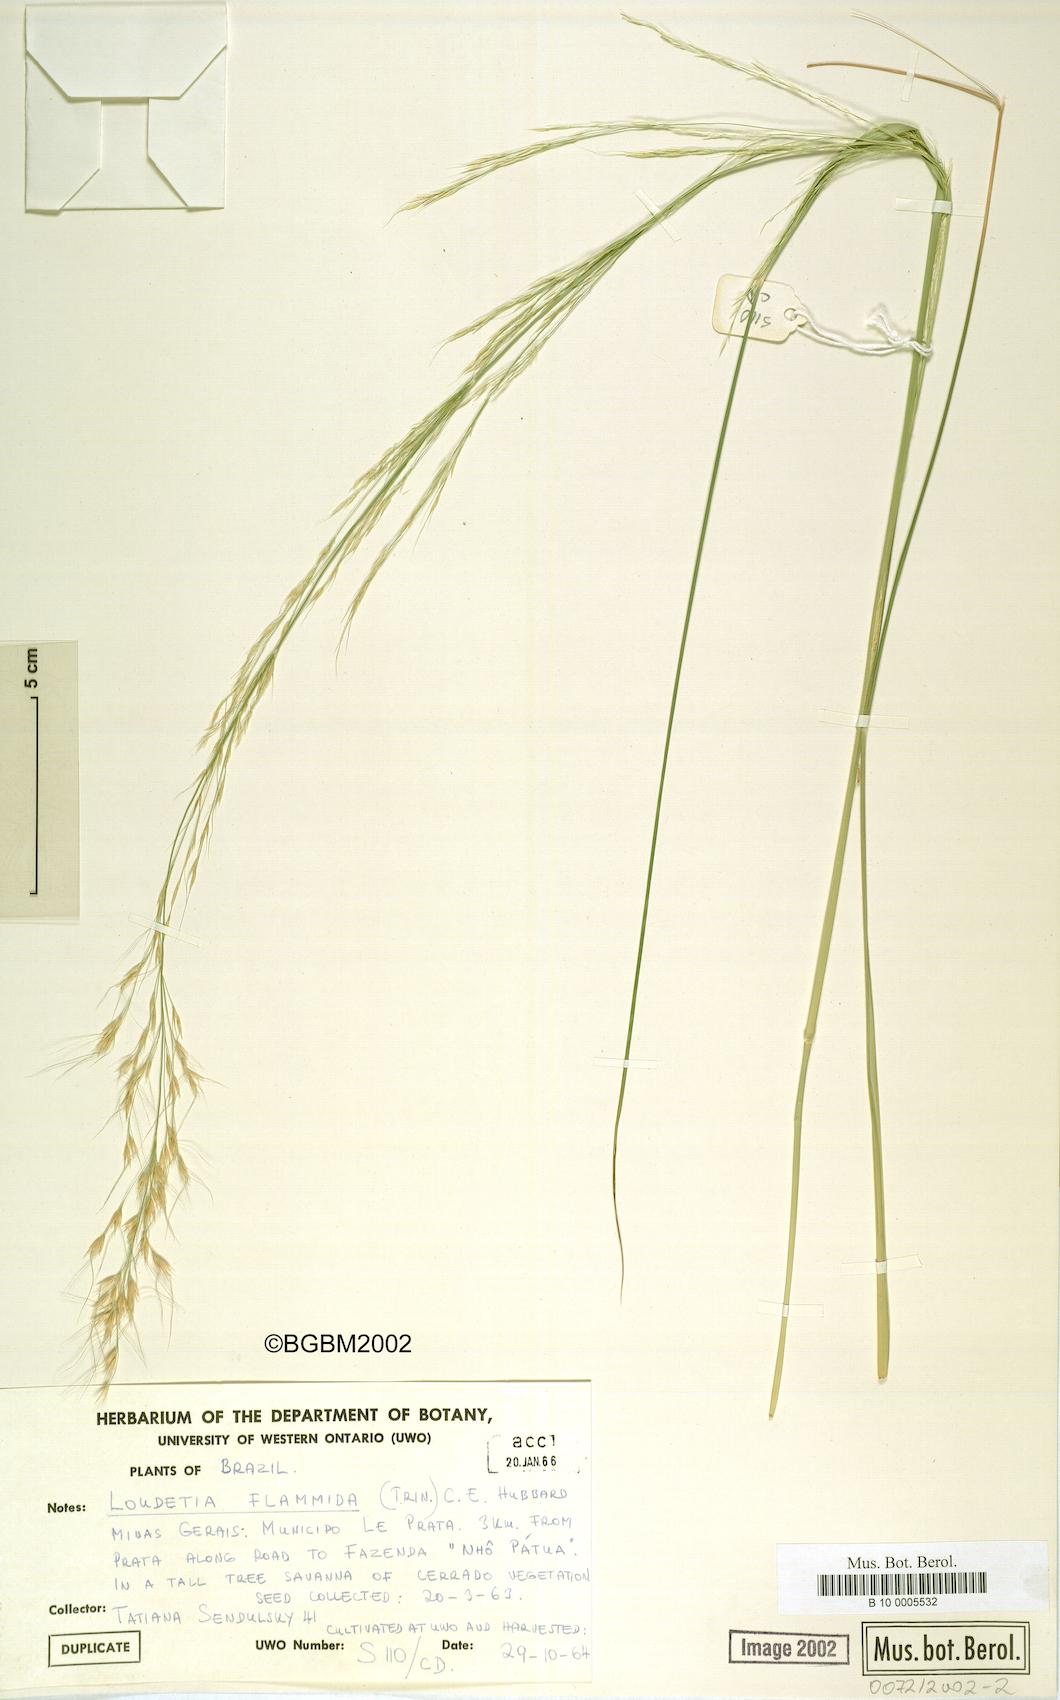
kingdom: Plantae
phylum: Tracheophyta
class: Liliopsida
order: Poales
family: Poaceae
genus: Loudetia
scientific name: Loudetia flammida
